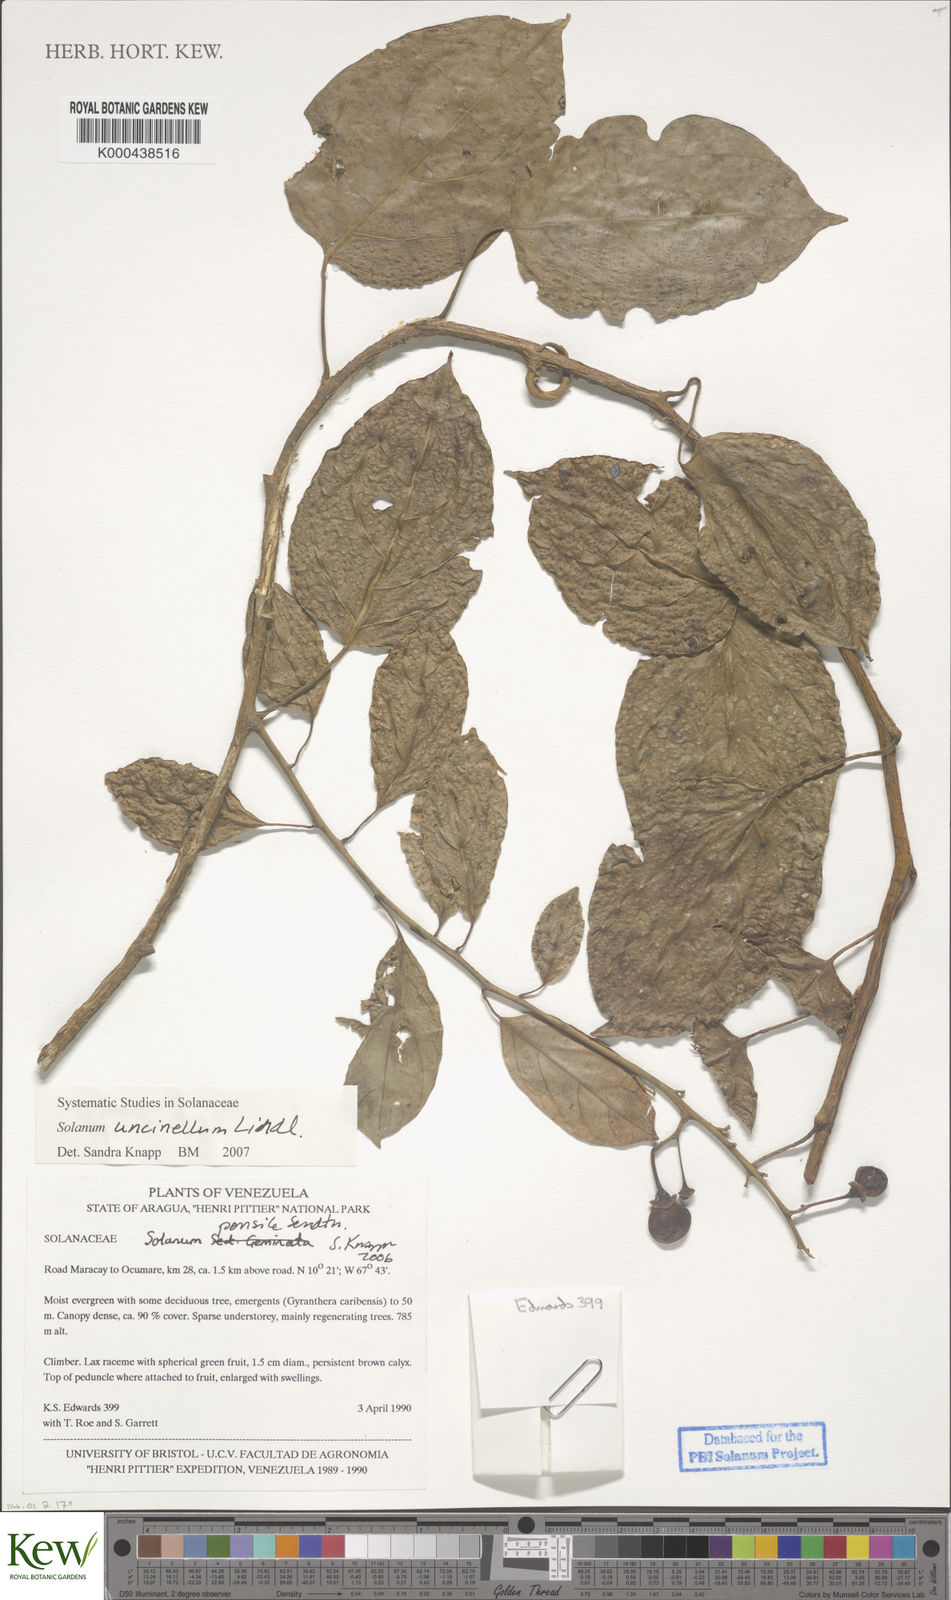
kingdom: Plantae
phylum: Tracheophyta
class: Magnoliopsida
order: Solanales
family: Solanaceae
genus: Solanum
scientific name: Solanum uncinellum
